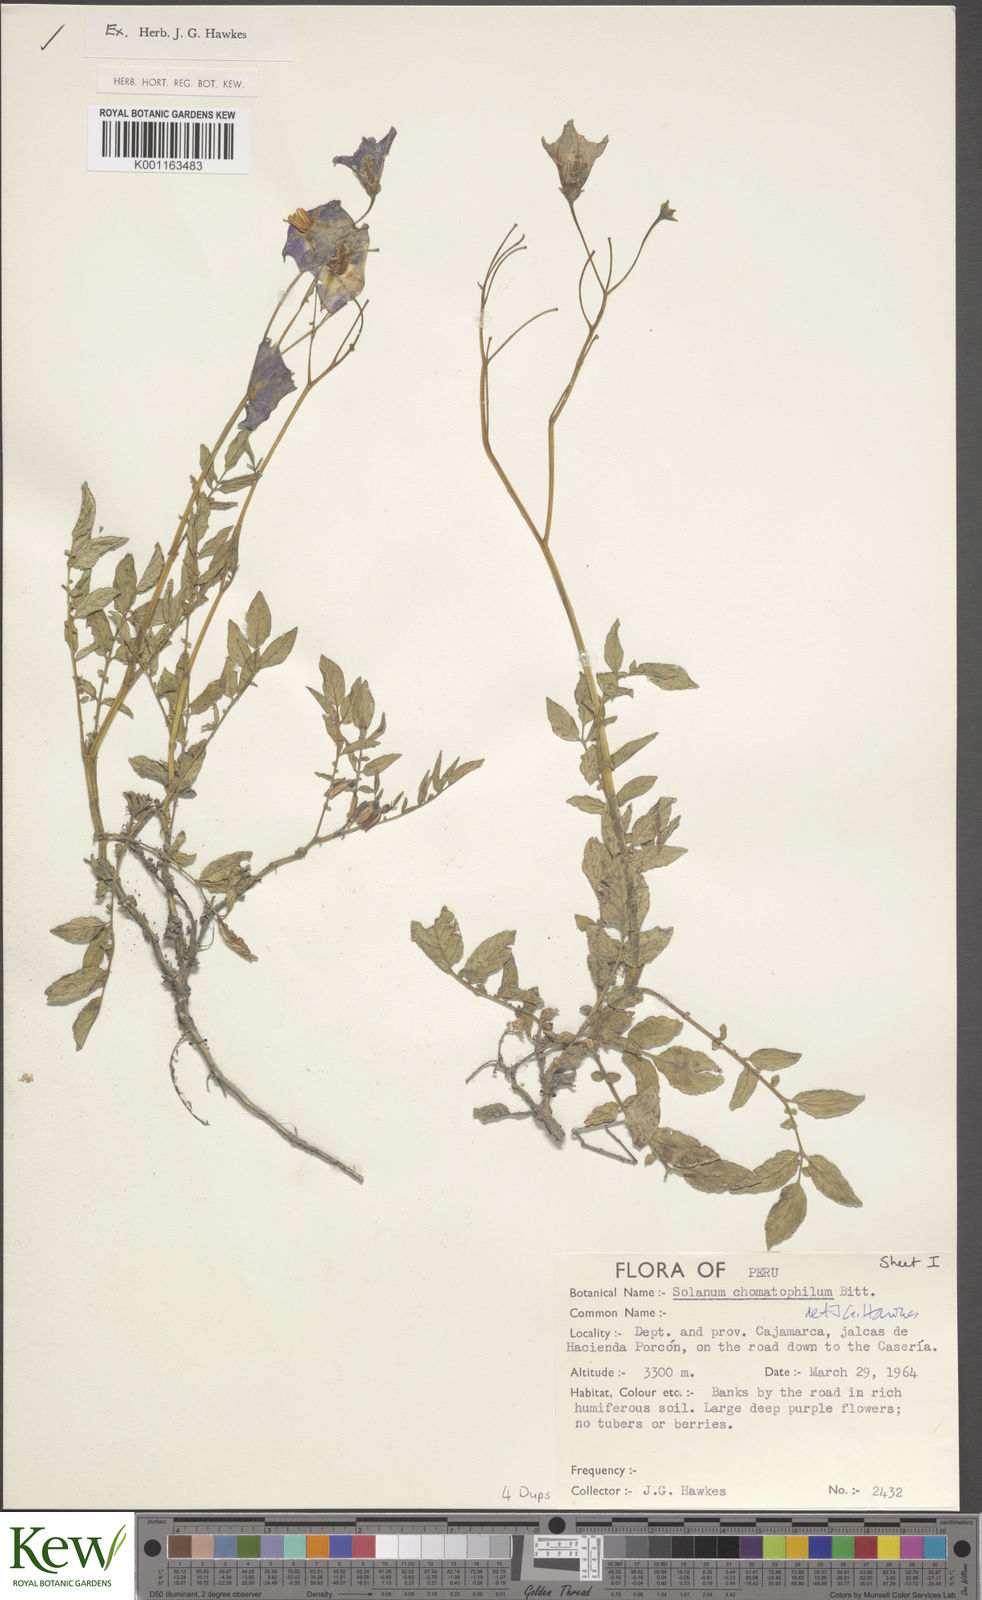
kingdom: Plantae
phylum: Tracheophyta
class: Magnoliopsida
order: Solanales
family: Solanaceae
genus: Solanum
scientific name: Solanum chomatophilum
